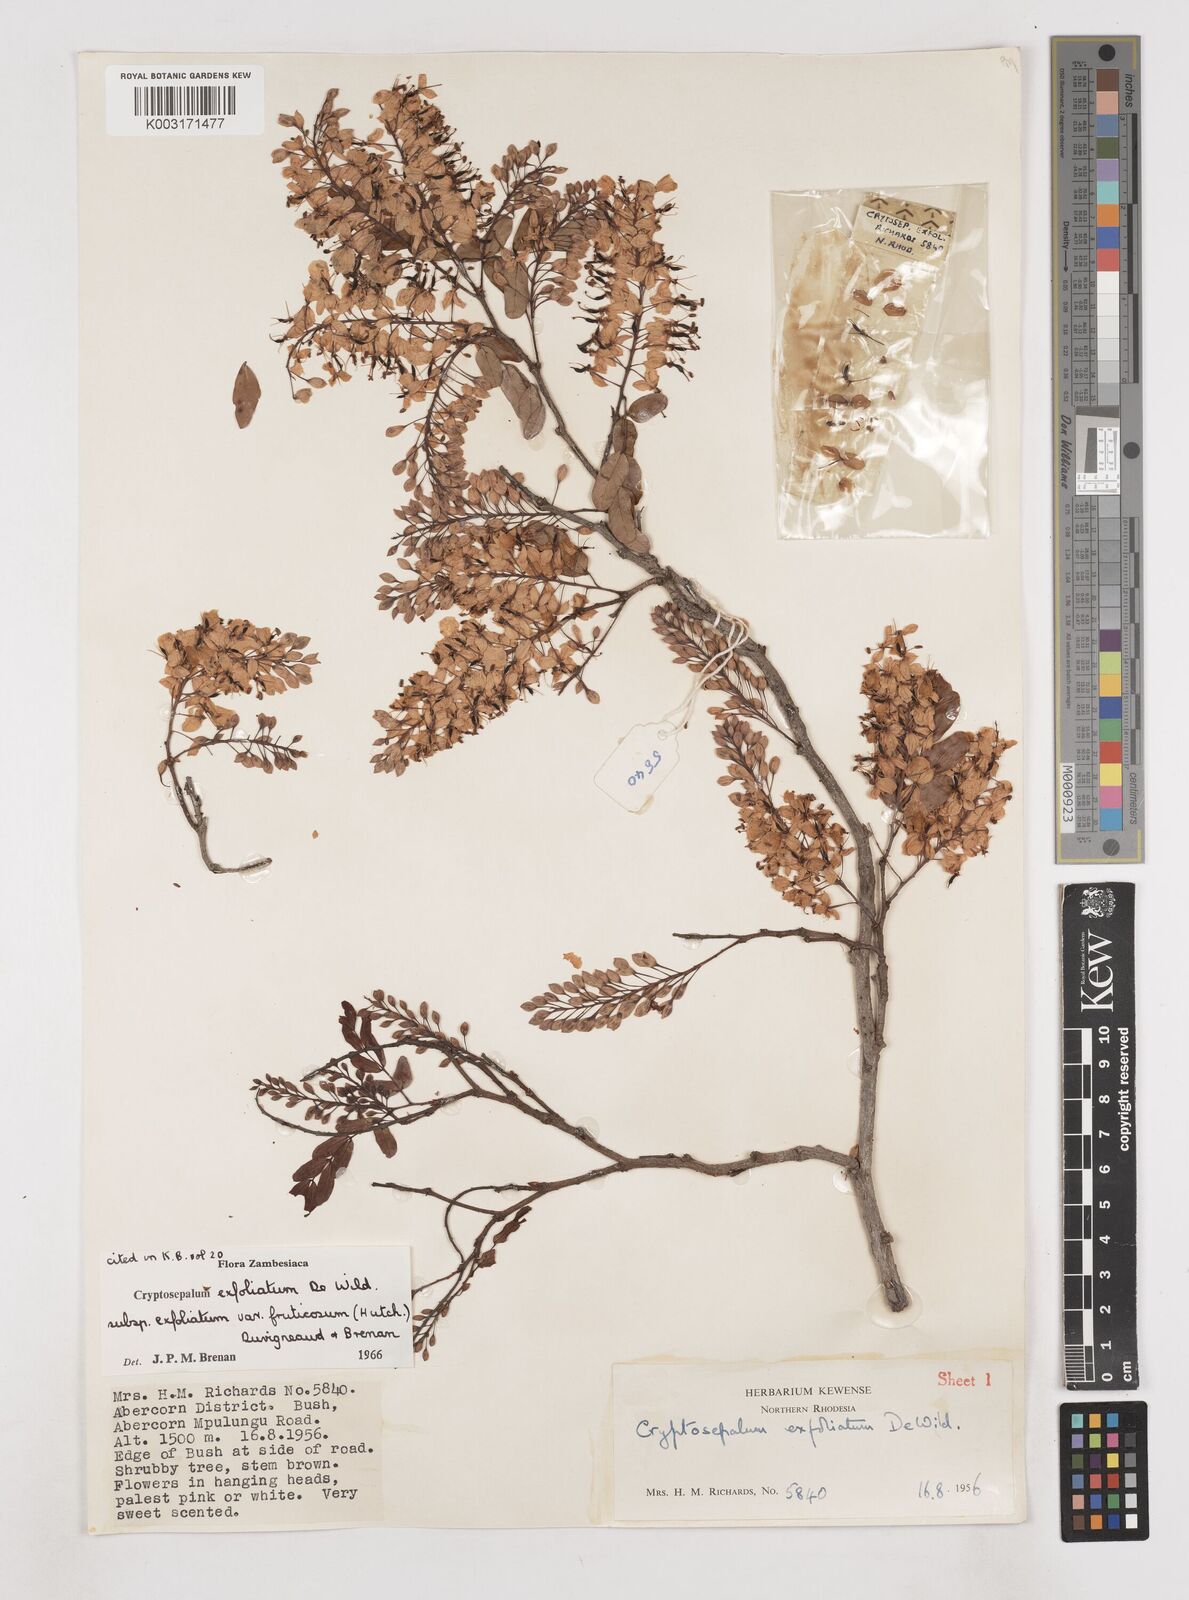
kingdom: Plantae
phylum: Tracheophyta
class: Magnoliopsida
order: Fabales
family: Fabaceae
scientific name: Fabaceae
